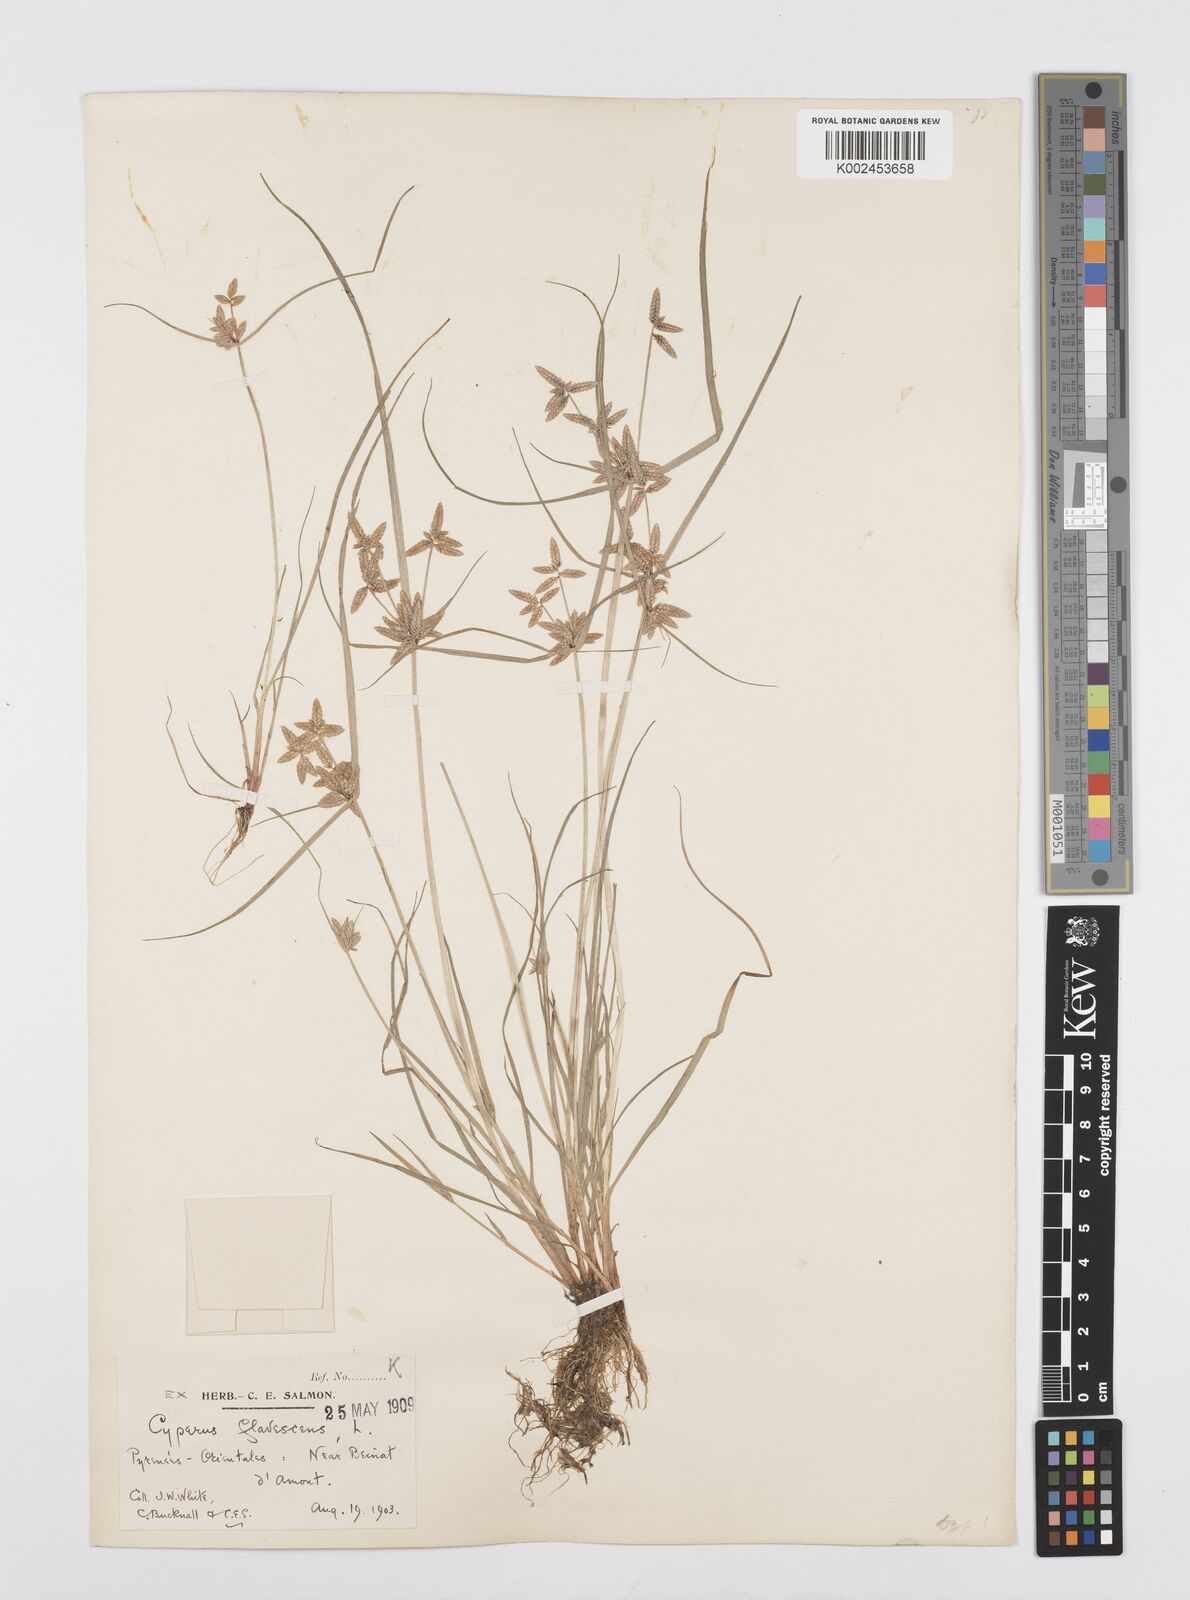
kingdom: Plantae
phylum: Tracheophyta
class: Liliopsida
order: Poales
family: Cyperaceae
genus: Cyperus
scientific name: Cyperus flavescens
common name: Yellow galingale
